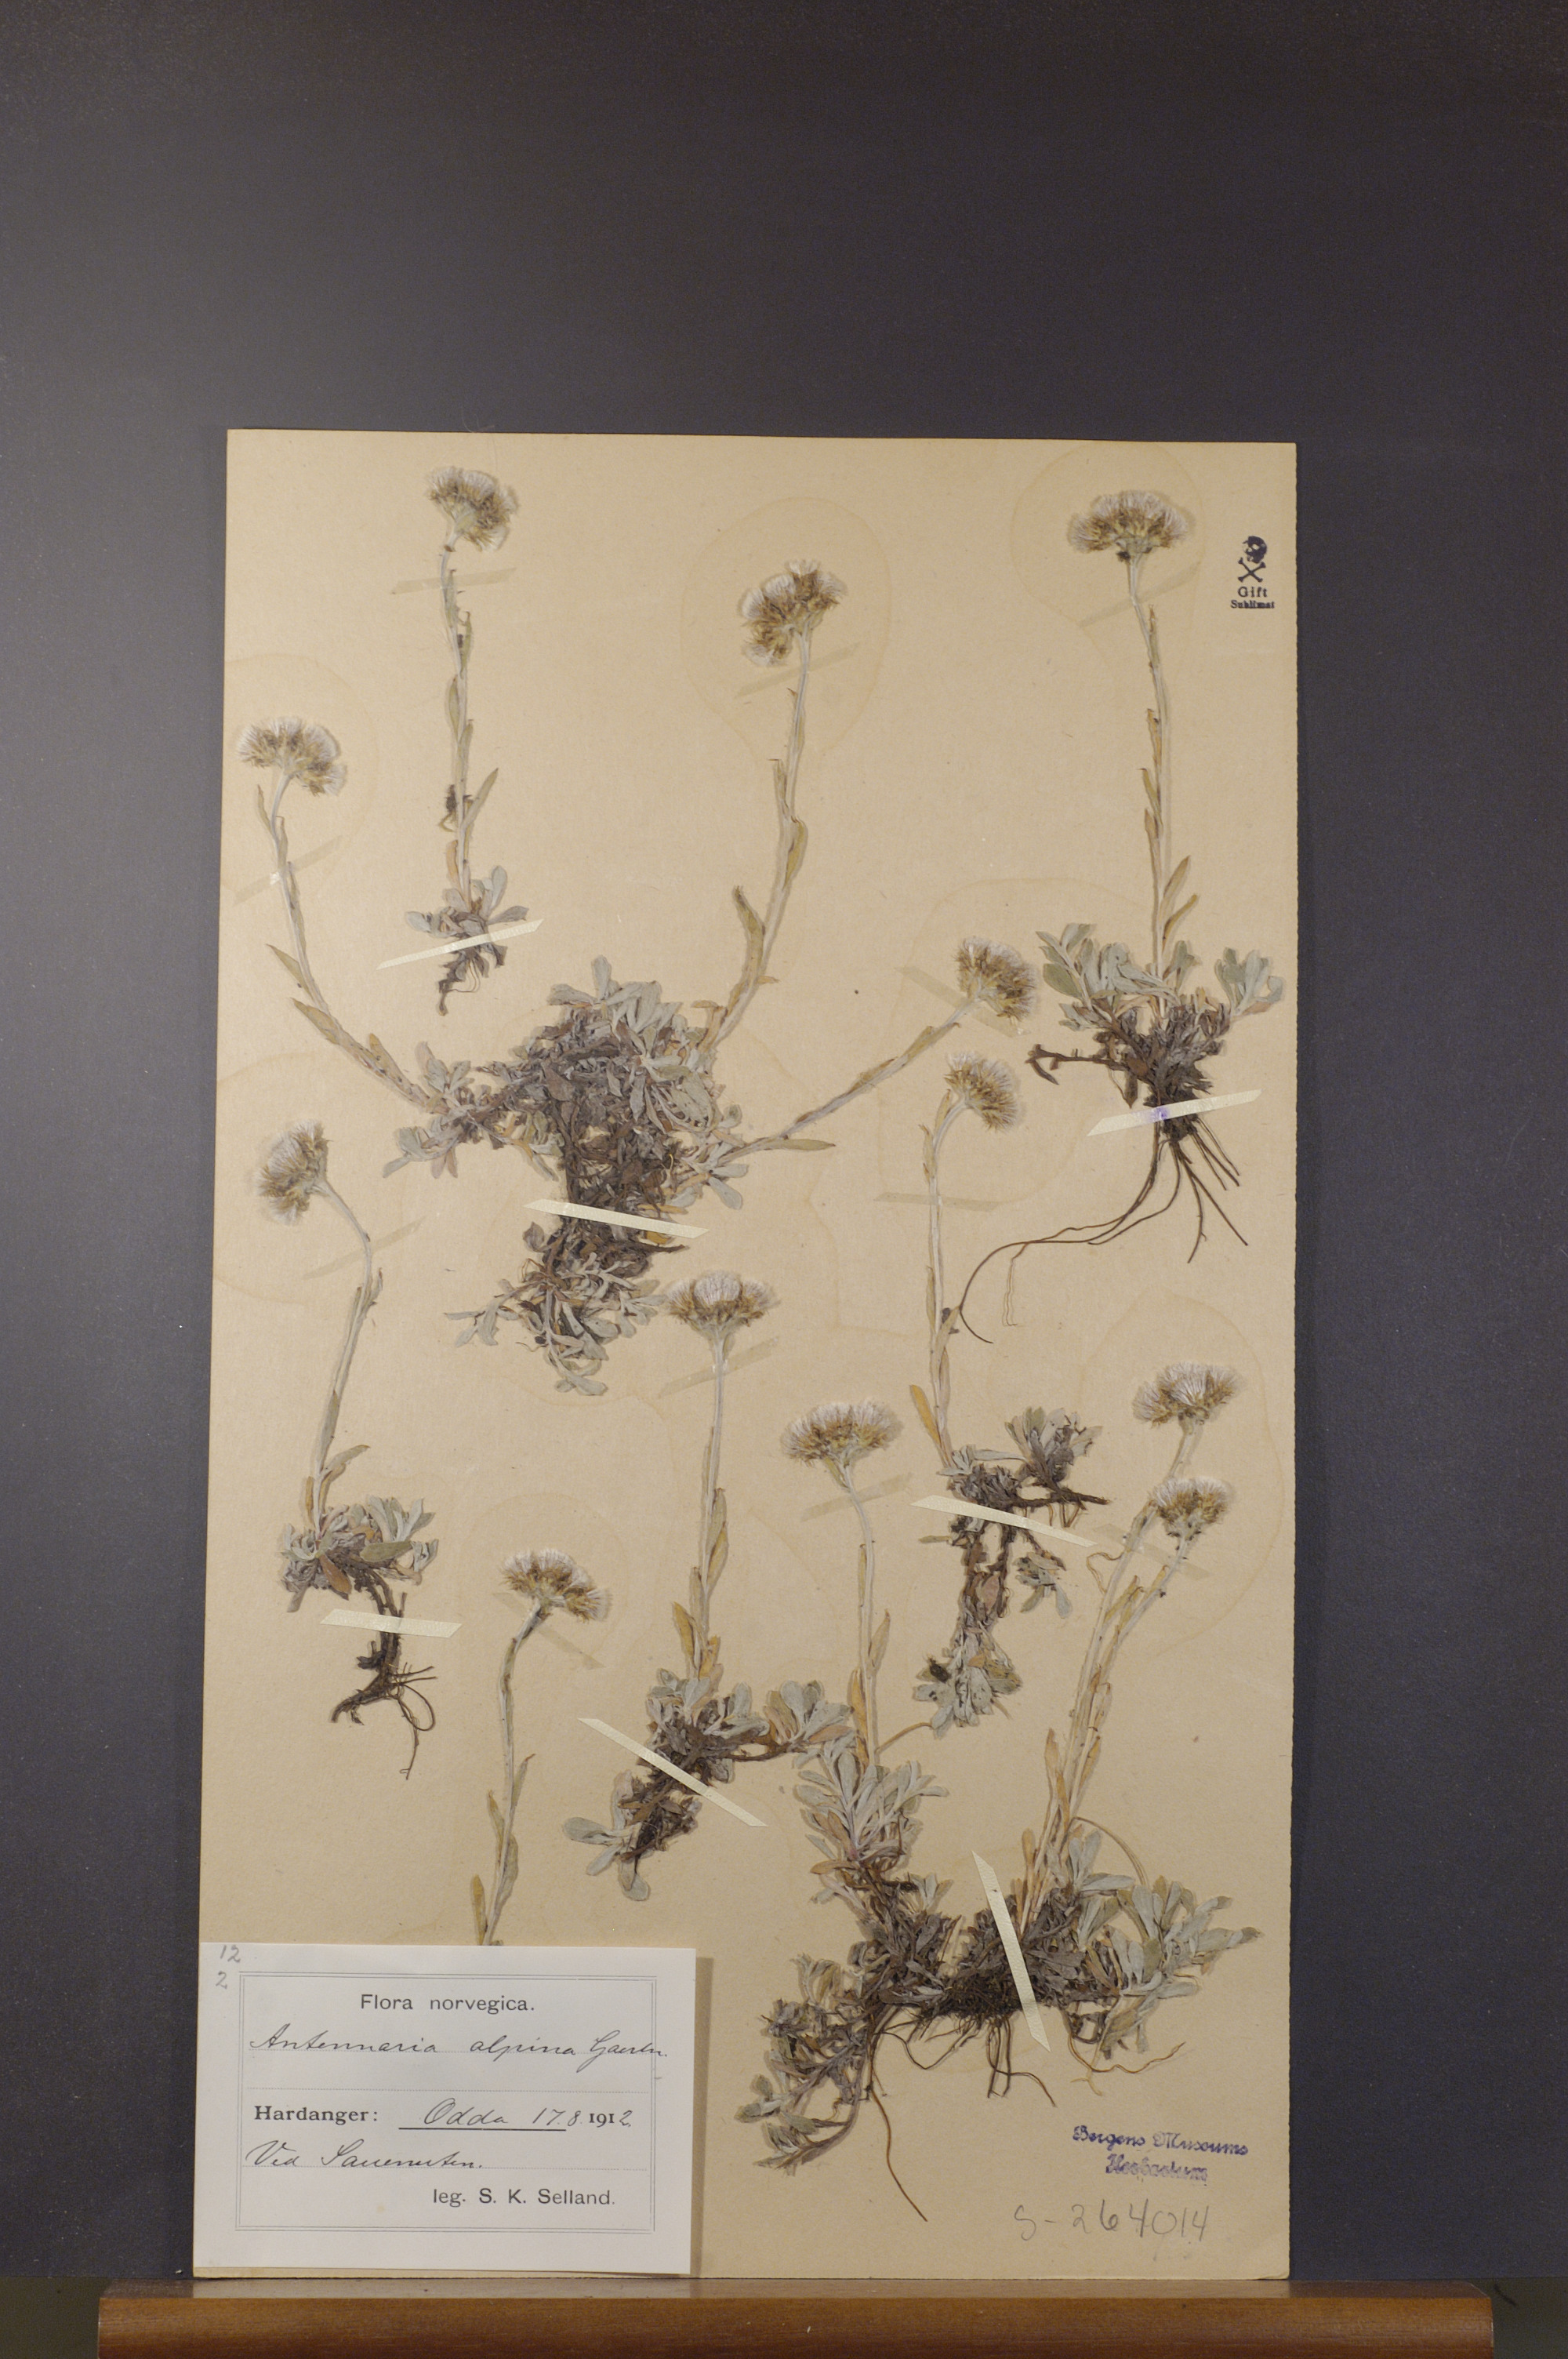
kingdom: Plantae
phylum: Tracheophyta
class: Magnoliopsida
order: Asterales
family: Asteraceae
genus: Antennaria
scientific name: Antennaria alpina
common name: Alpine pussytoes
